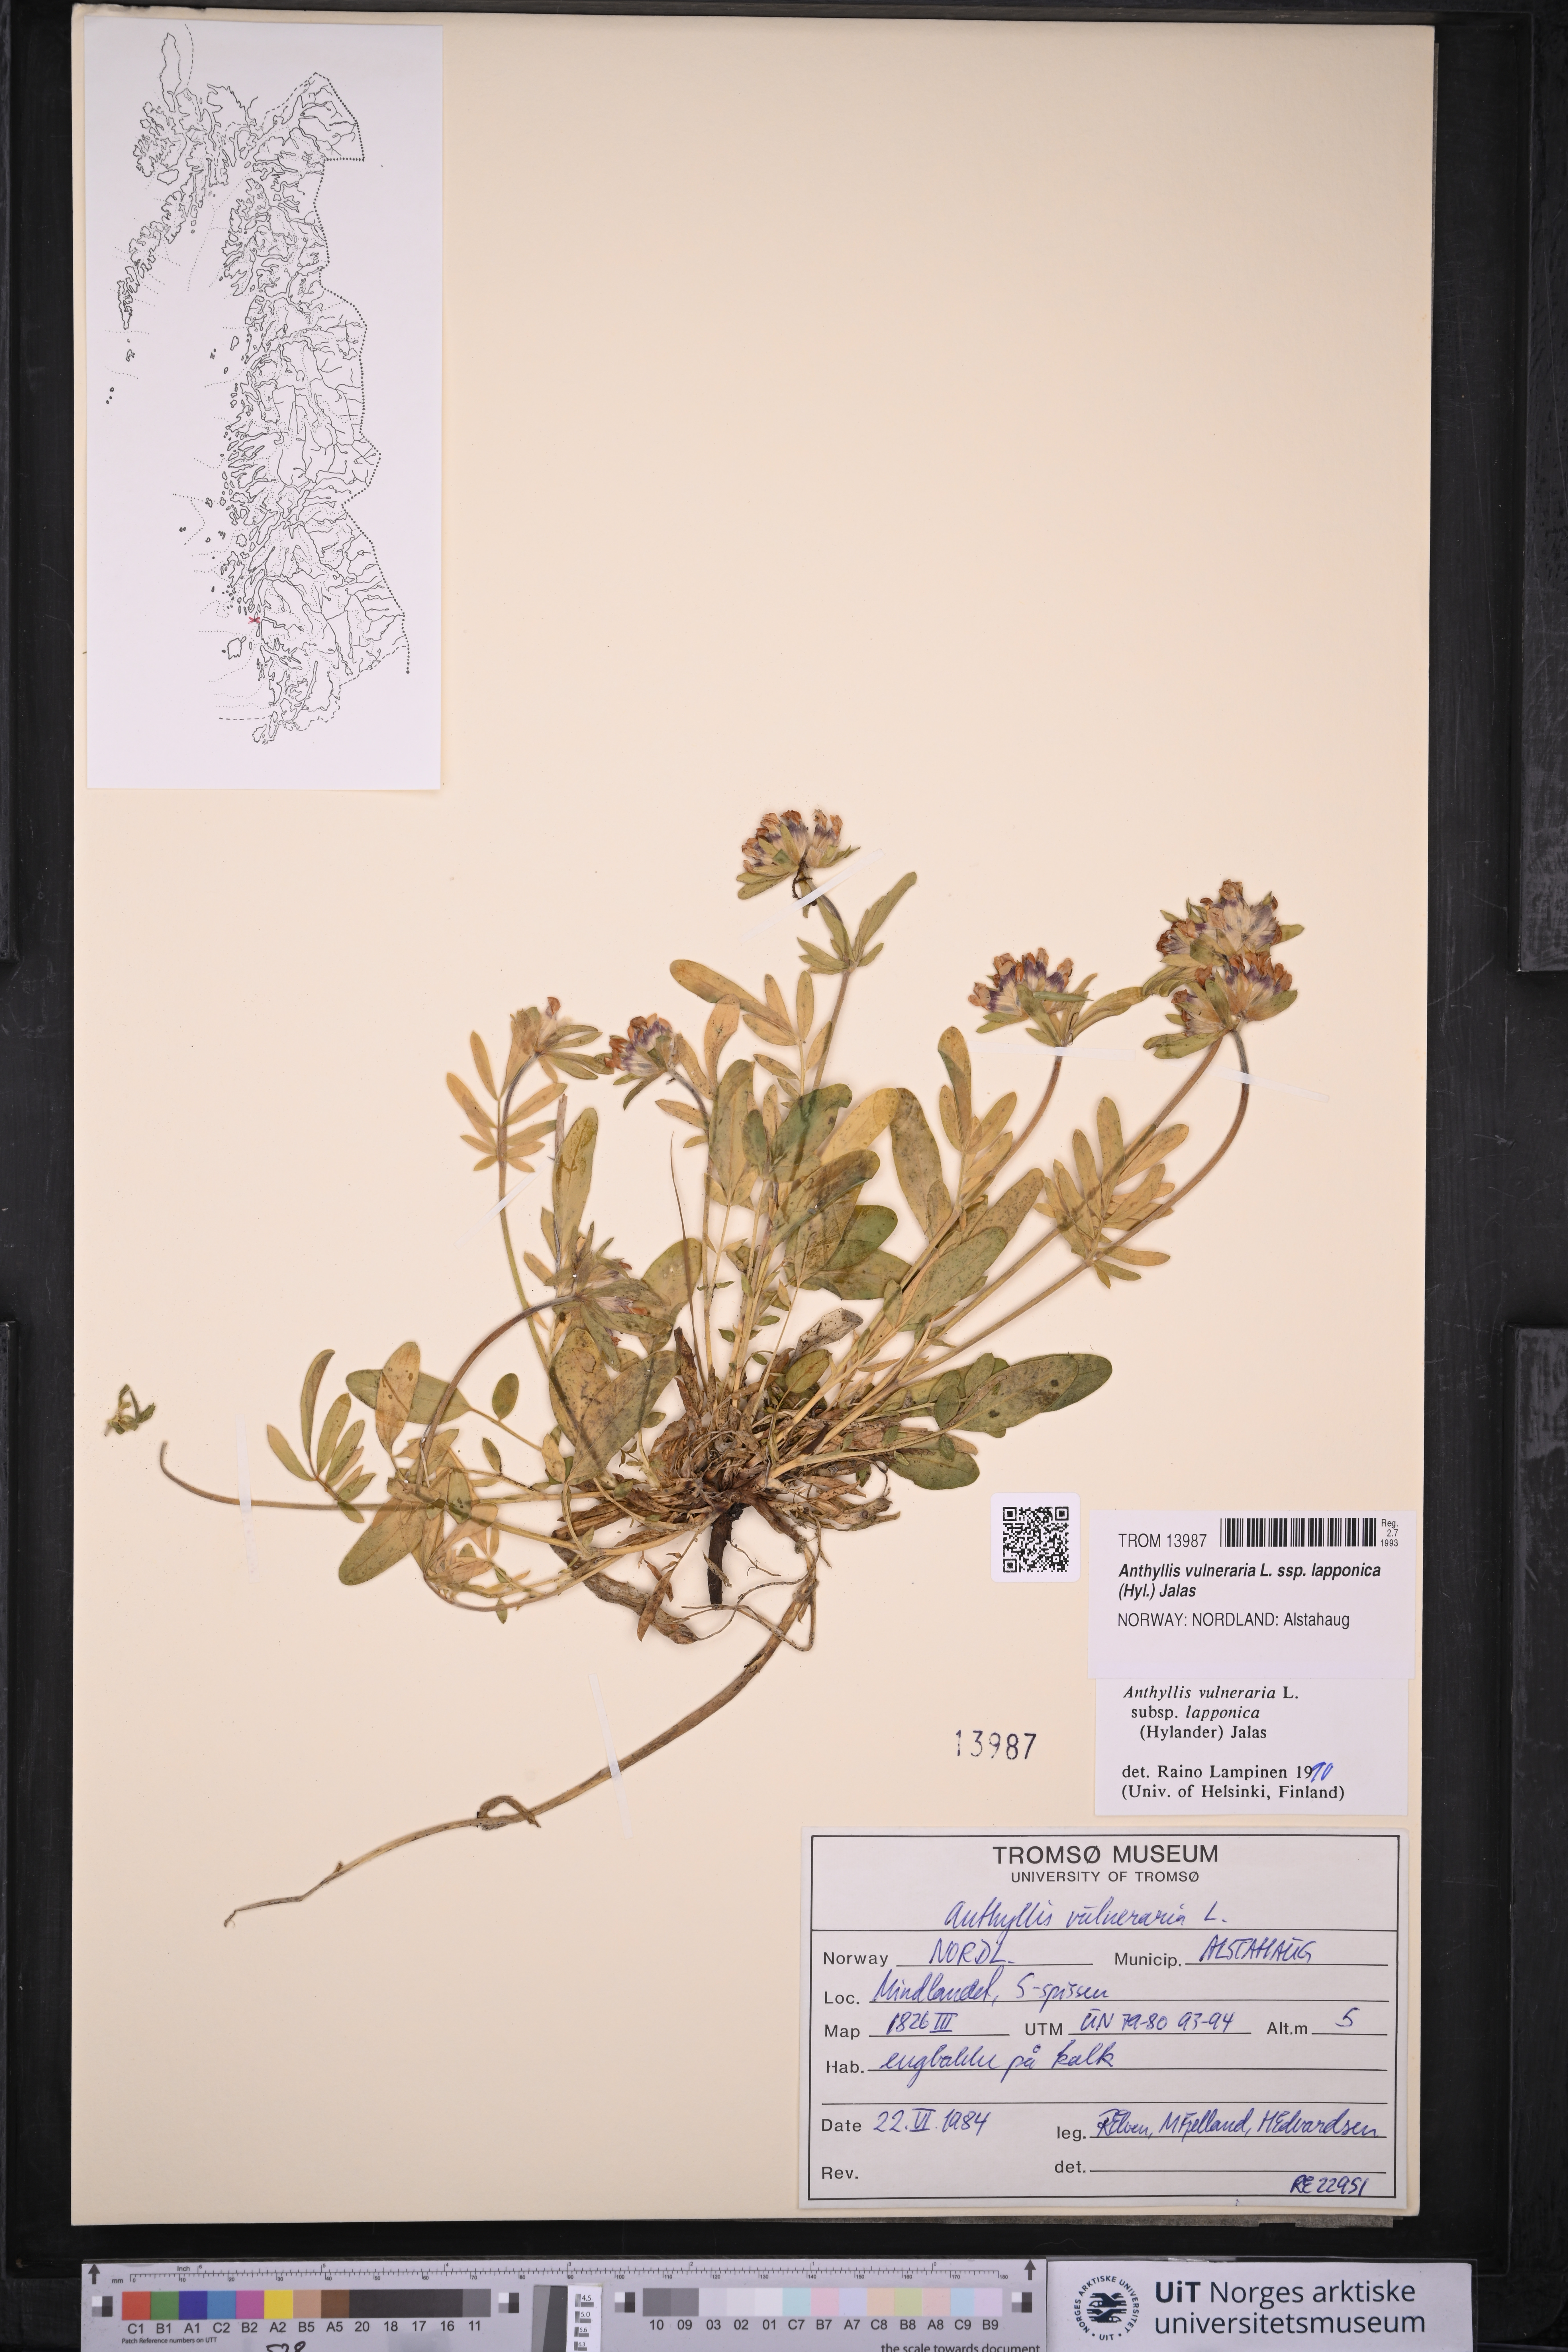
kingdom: Plantae
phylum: Tracheophyta
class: Magnoliopsida
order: Fabales
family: Fabaceae
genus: Anthyllis
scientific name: Anthyllis vulneraria
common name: Kidney vetch
